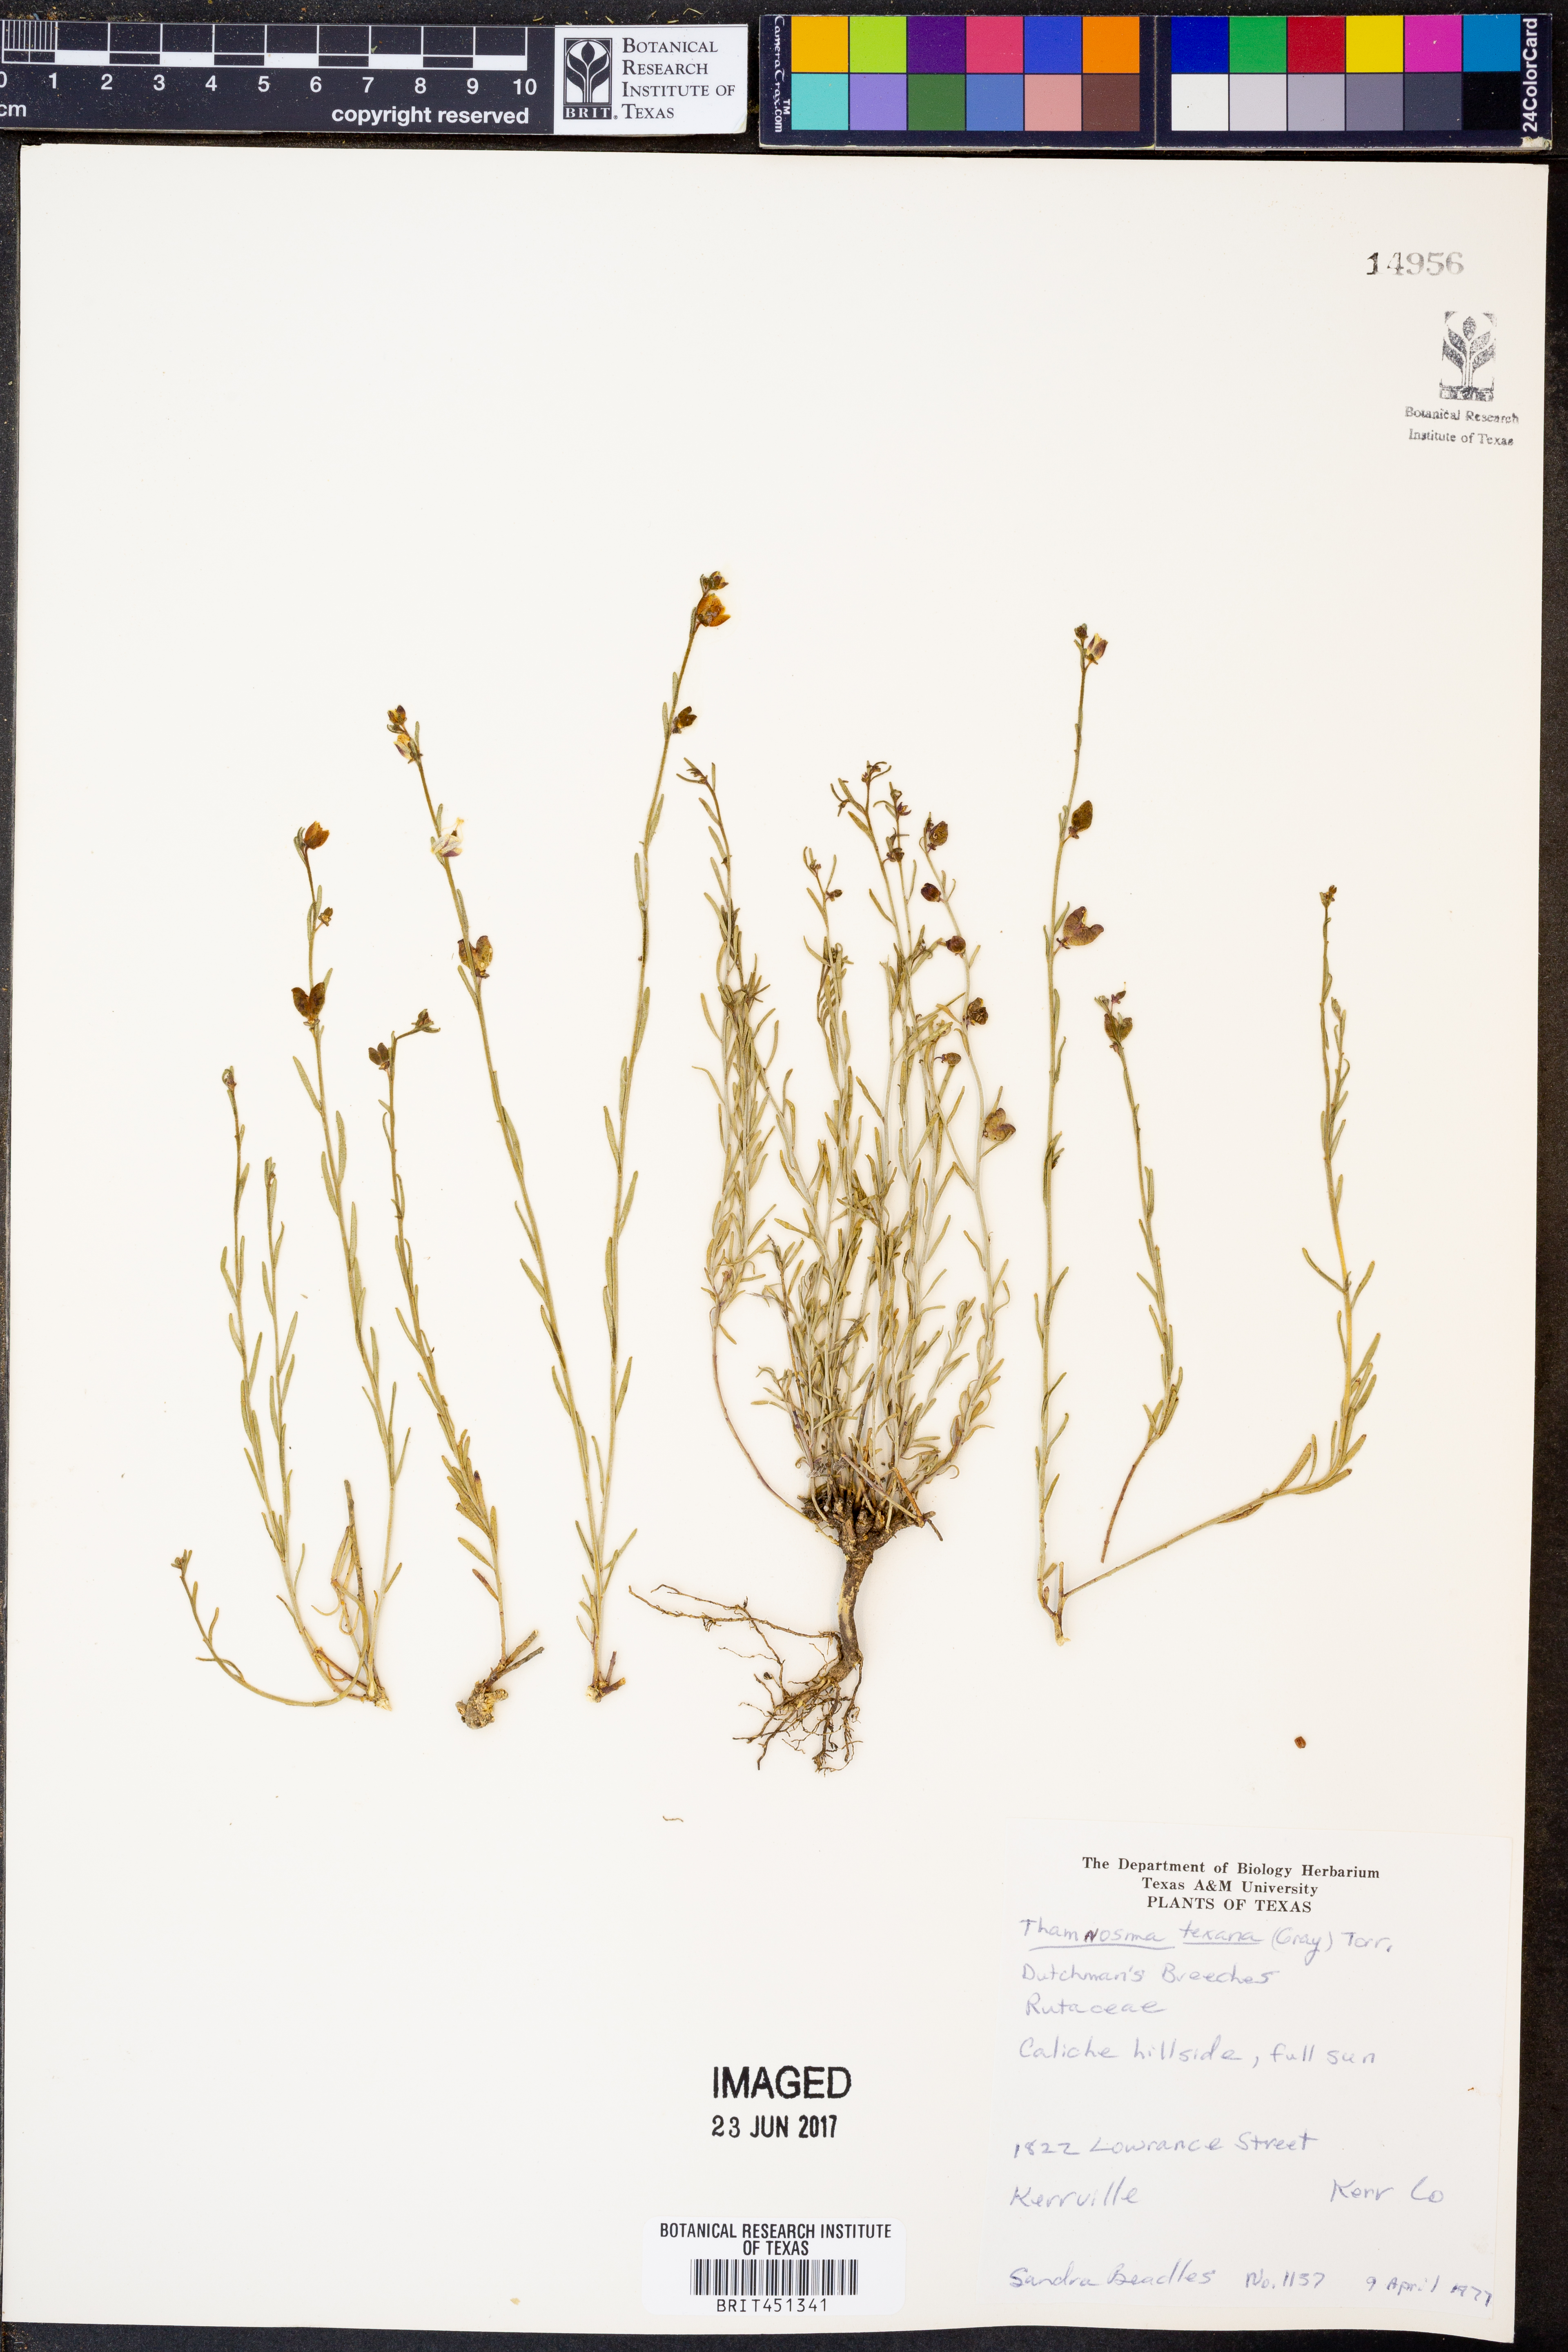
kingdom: Plantae
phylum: Tracheophyta
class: Magnoliopsida
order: Sapindales
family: Rutaceae
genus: Thamnosma
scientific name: Thamnosma texana
